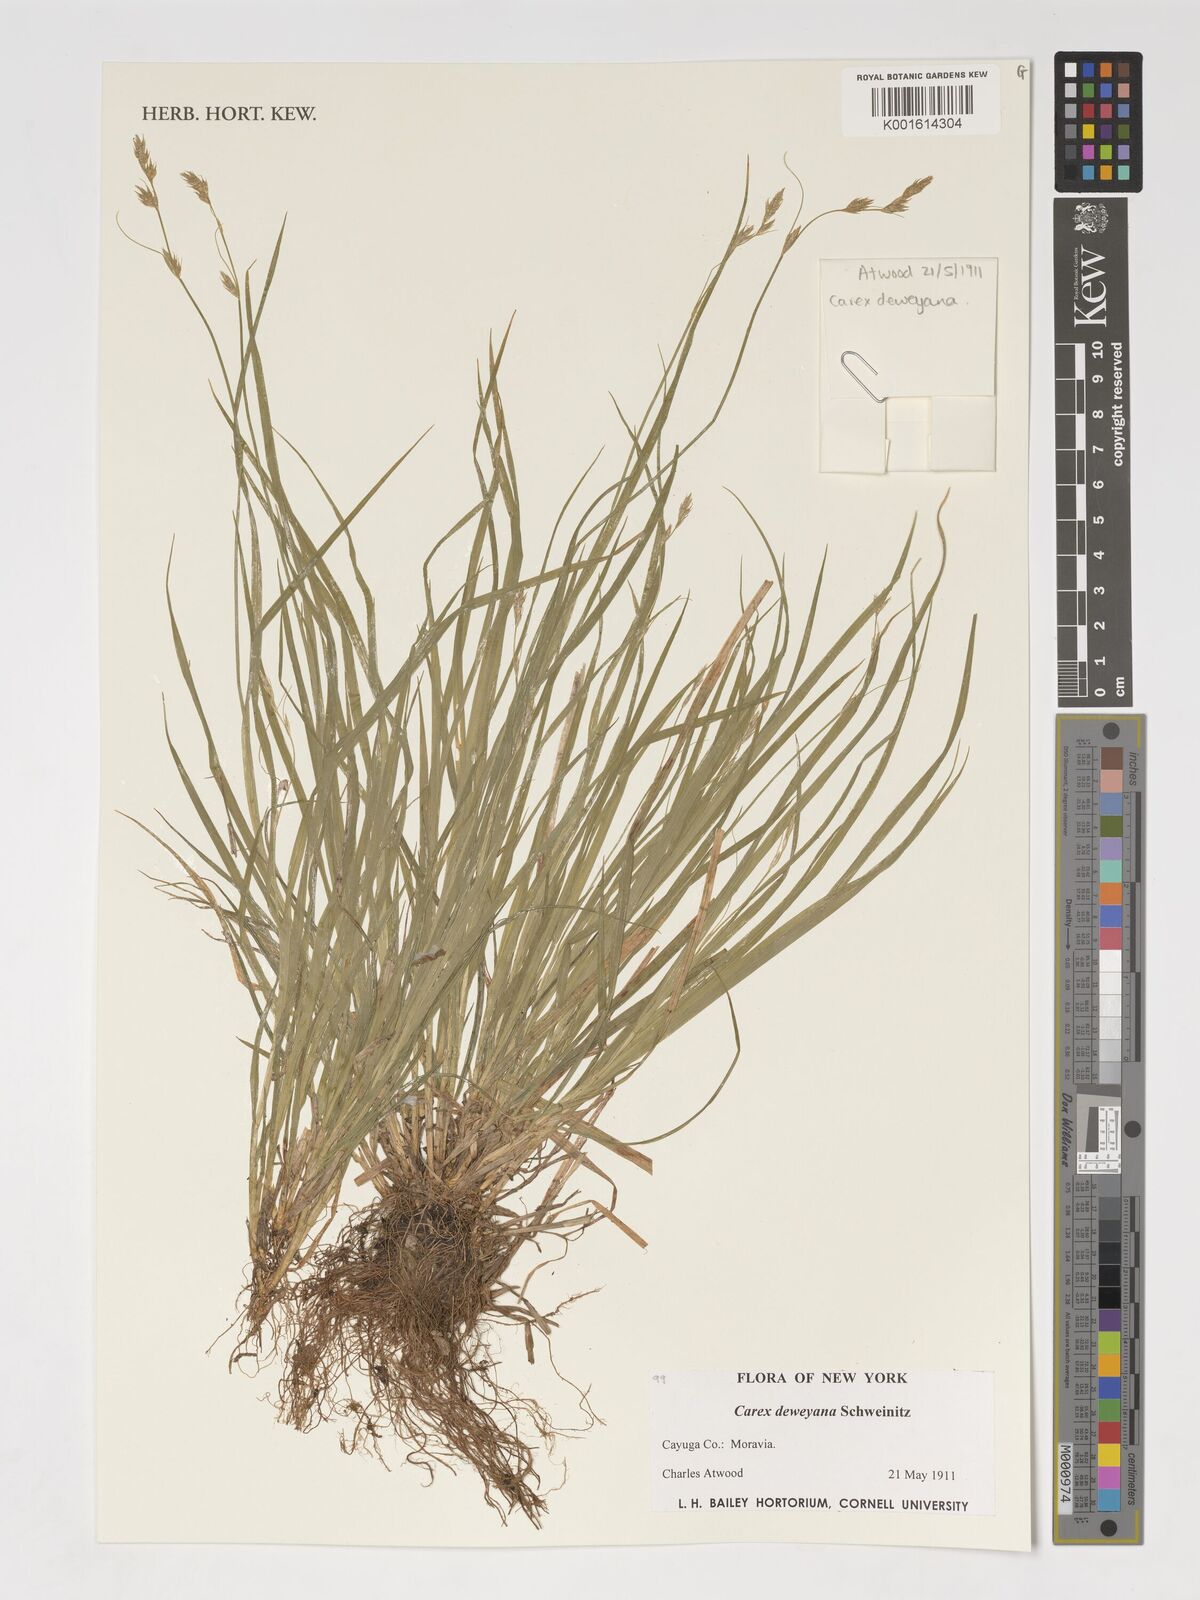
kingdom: Plantae
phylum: Tracheophyta
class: Liliopsida
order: Poales
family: Cyperaceae
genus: Carex
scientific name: Carex deweyana
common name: Dewey's sedge
